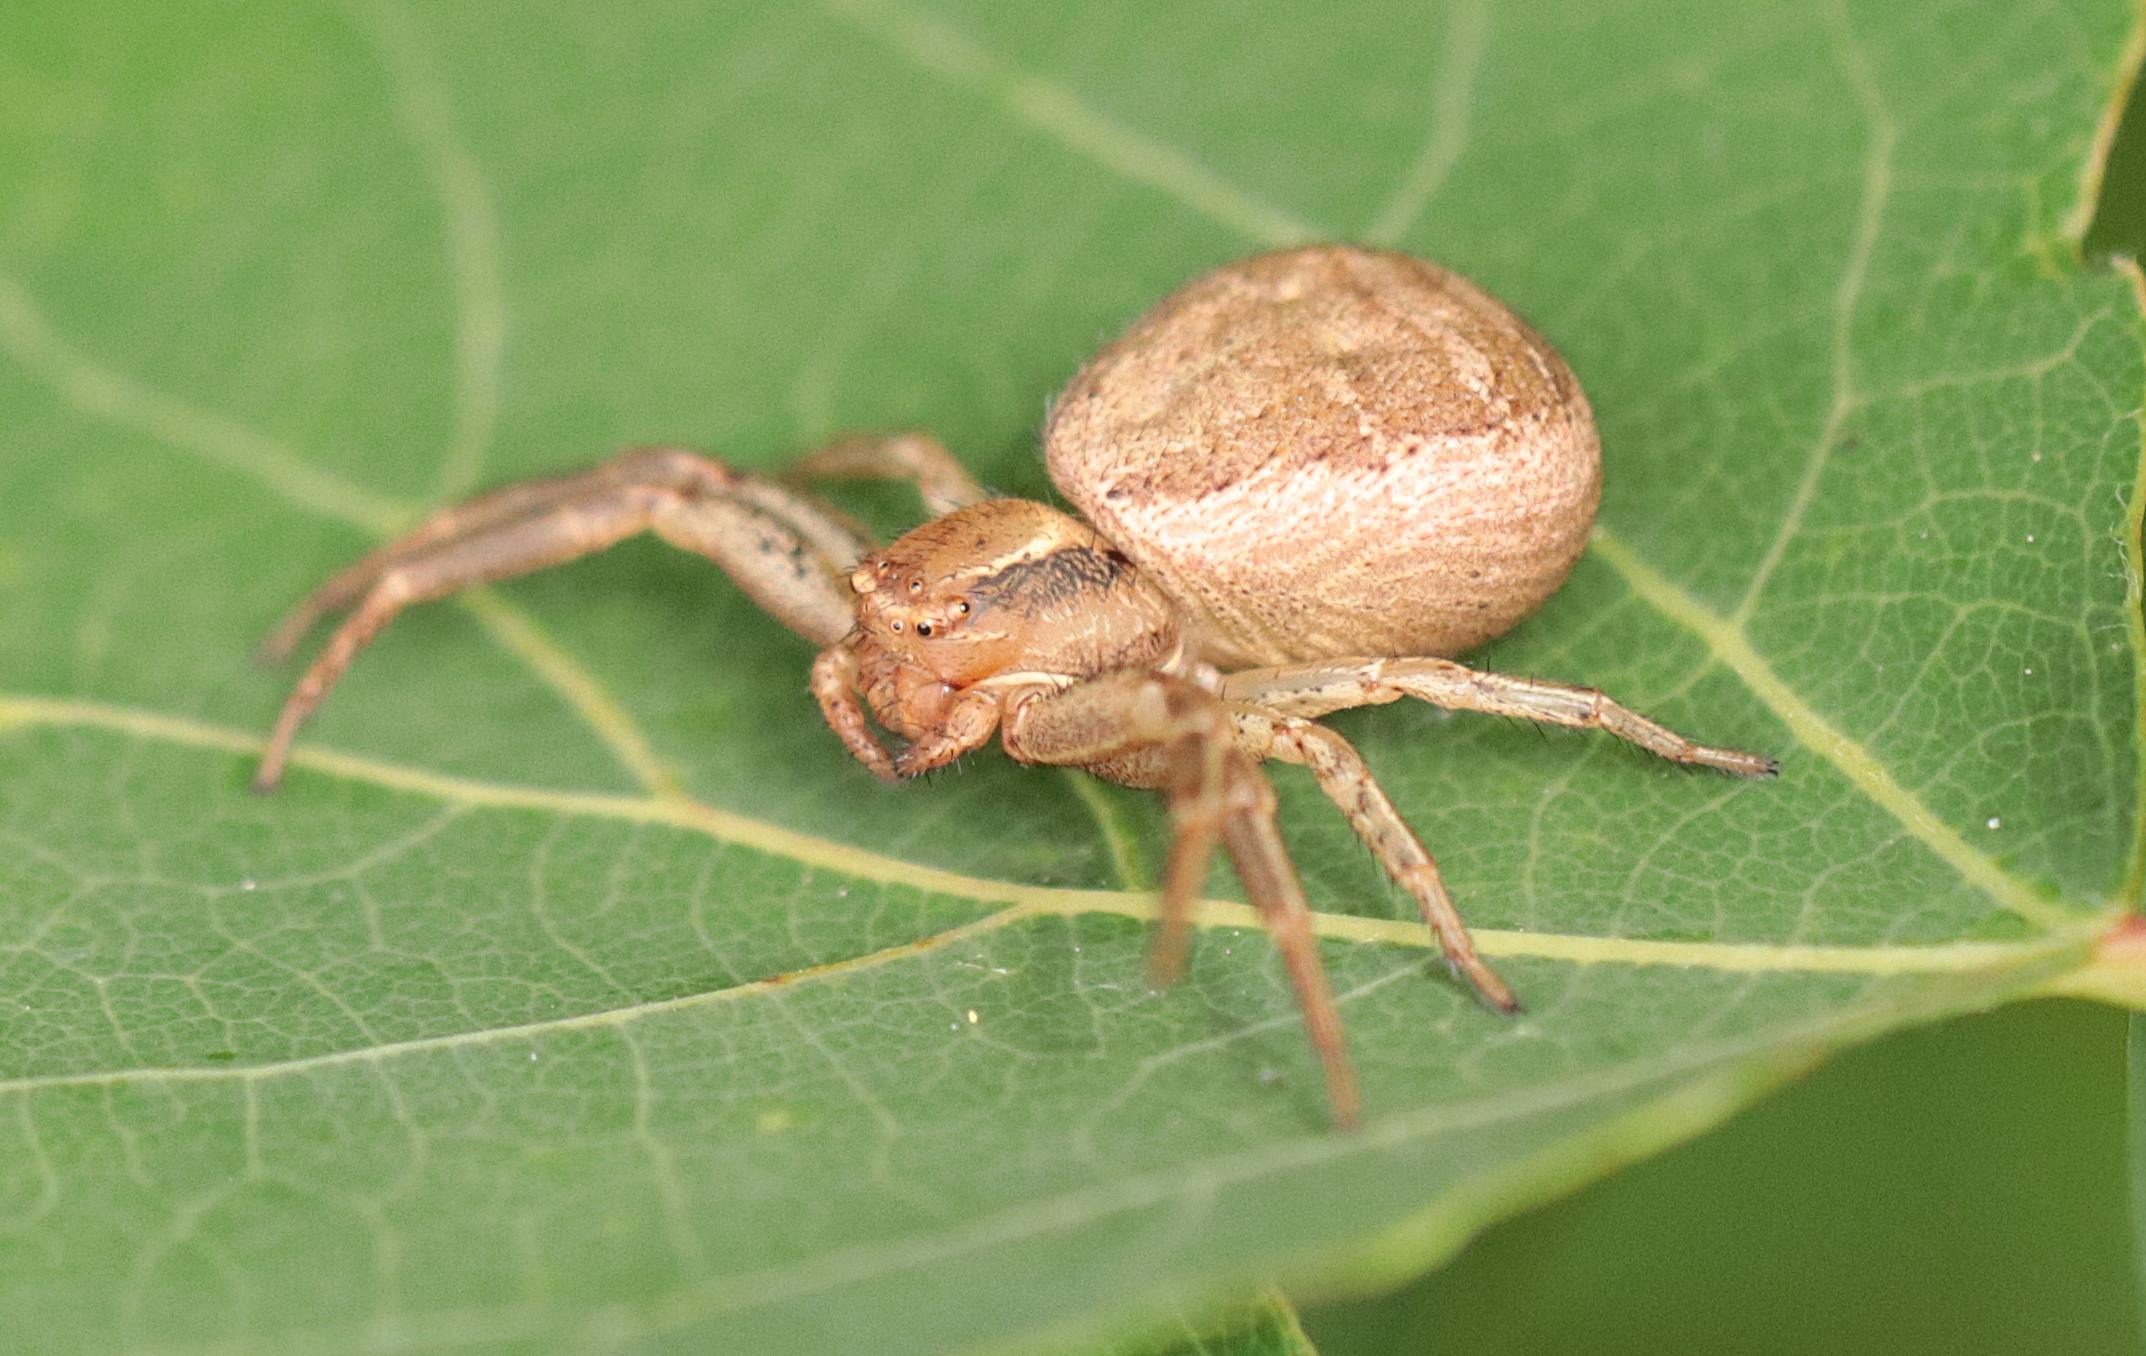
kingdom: Animalia
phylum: Arthropoda
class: Arachnida
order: Araneae
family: Thomisidae
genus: Xysticus
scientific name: Xysticus cristatus
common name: Almindelig krabbeedderkop
